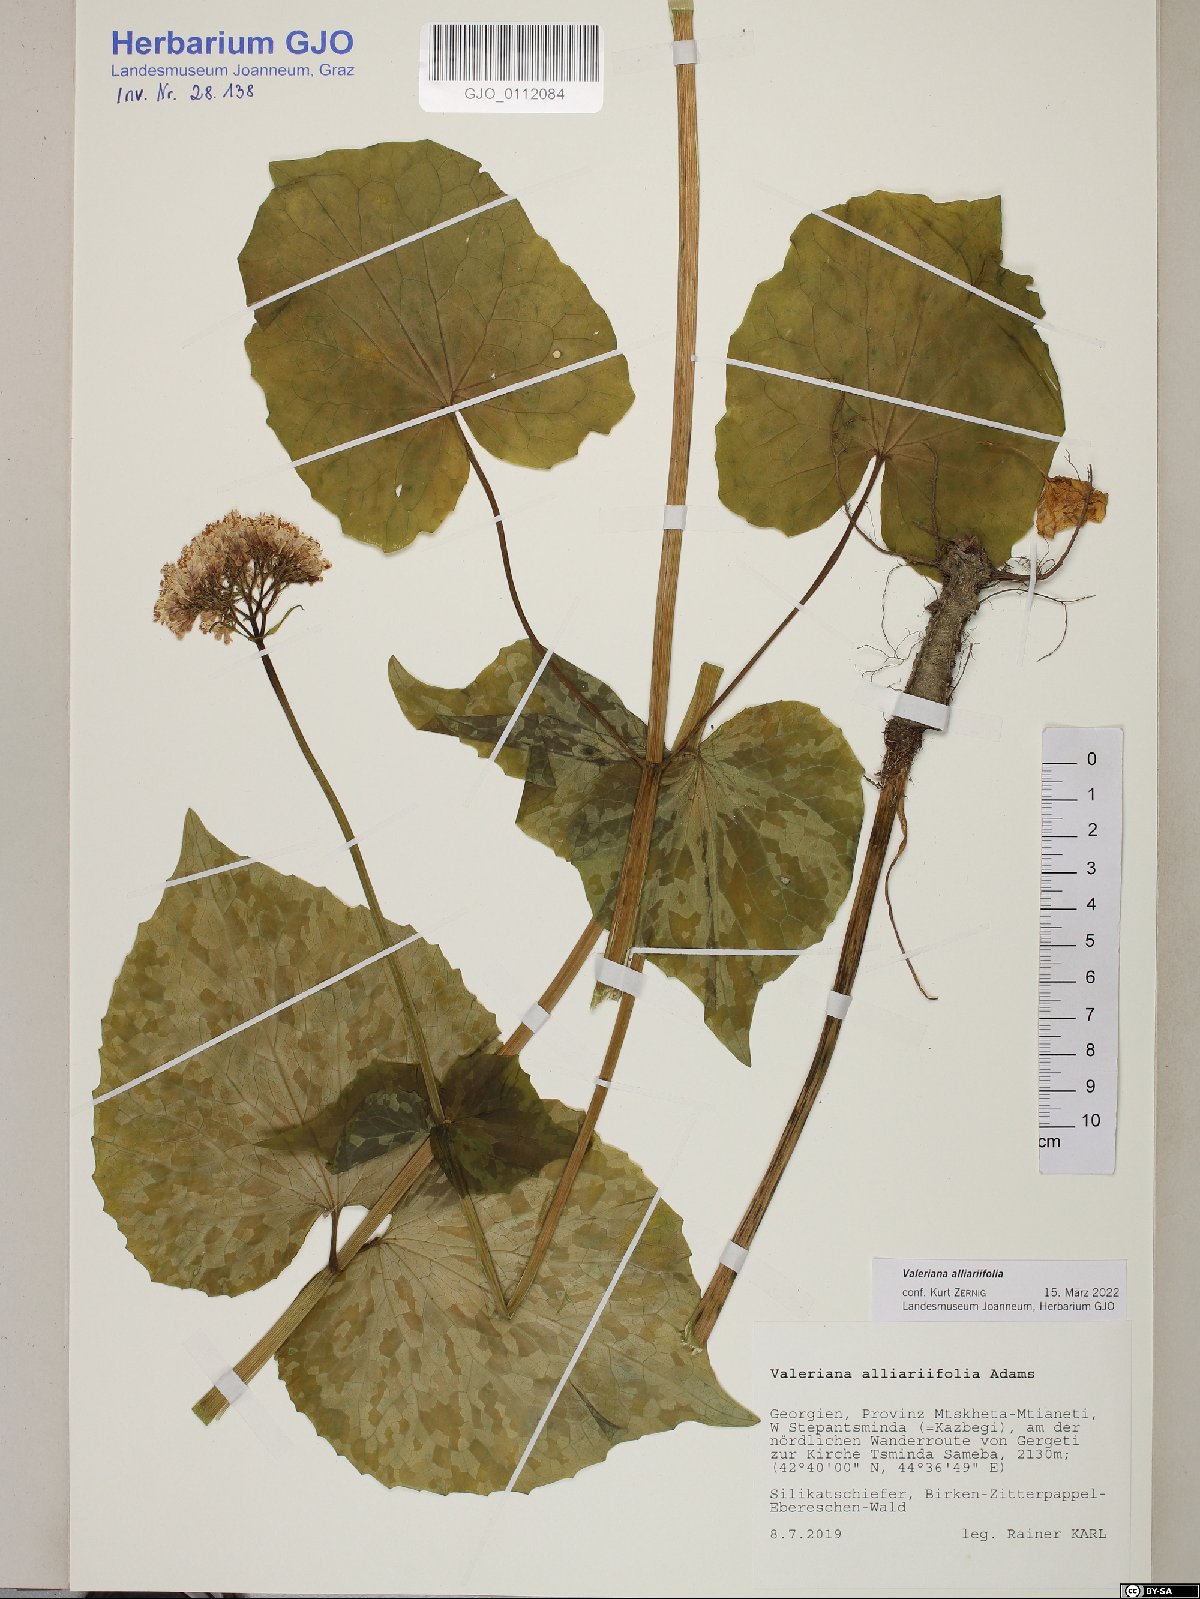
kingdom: Plantae
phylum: Tracheophyta
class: Magnoliopsida
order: Dipsacales
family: Caprifoliaceae
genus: Valeriana
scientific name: Valeriana alliariifolia
